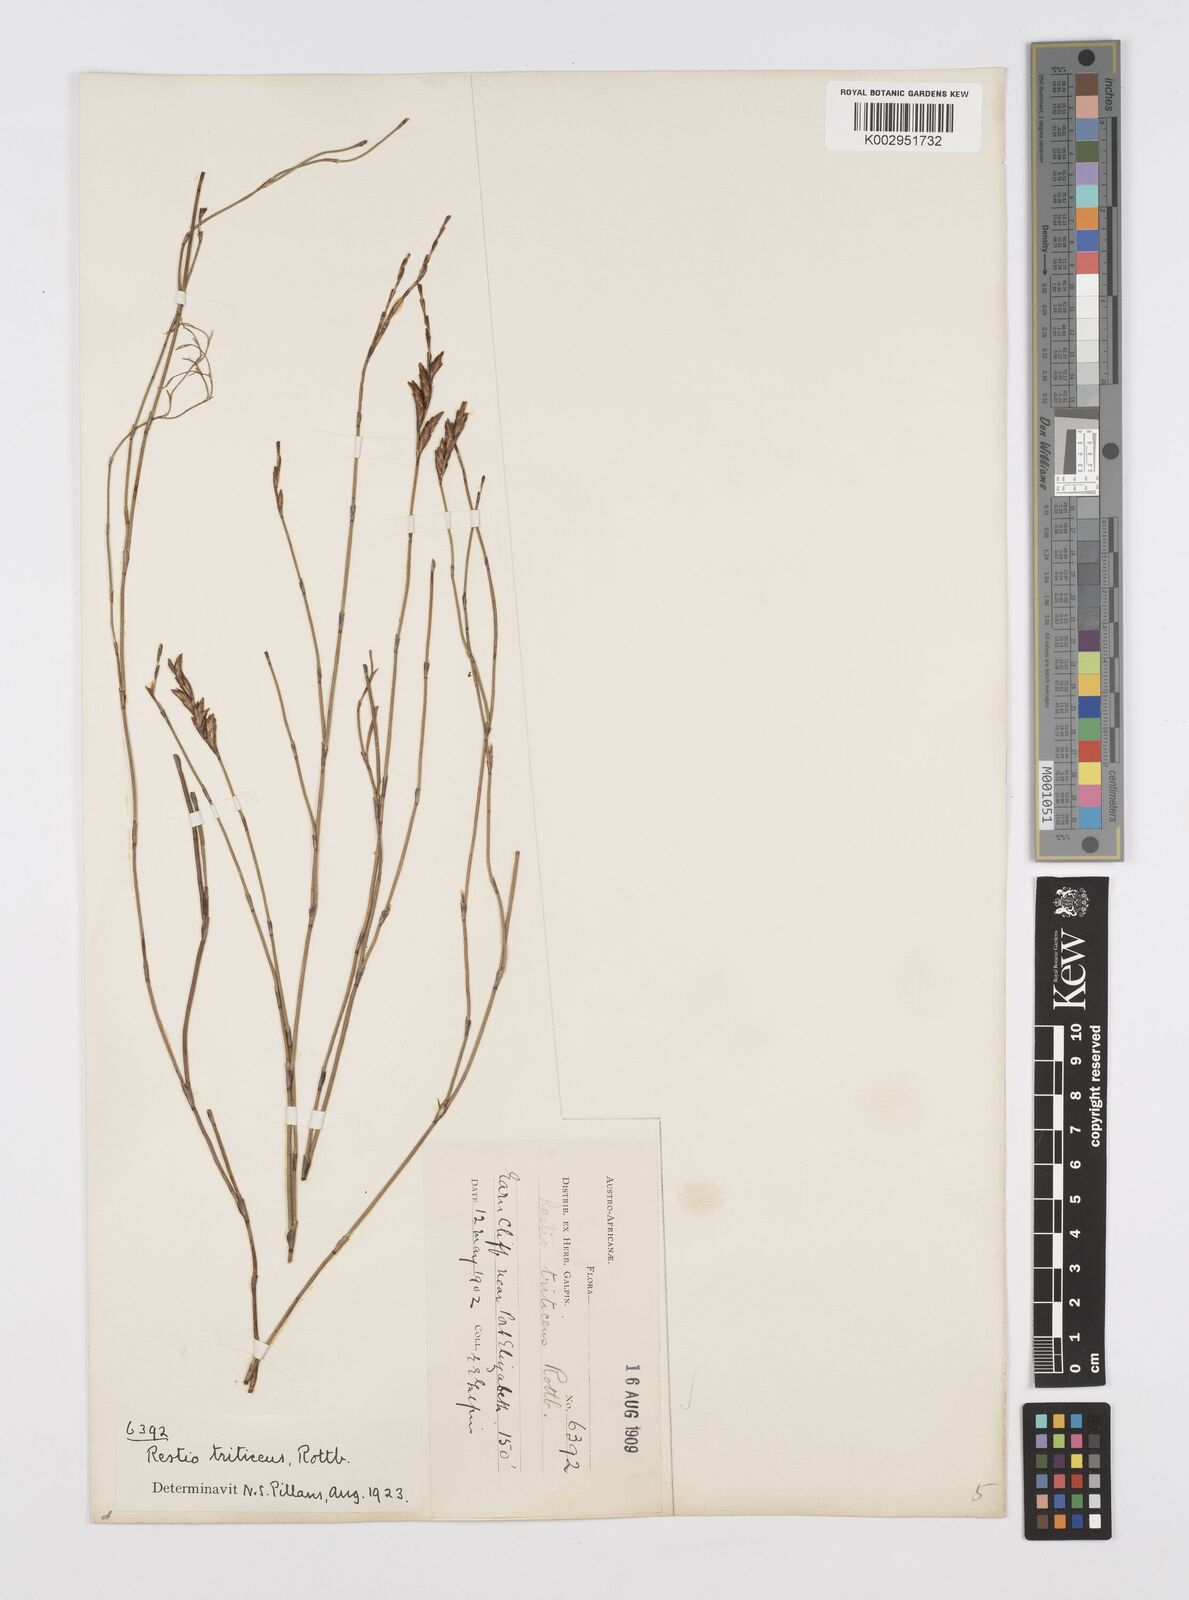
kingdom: Plantae
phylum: Tracheophyta
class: Liliopsida
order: Poales
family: Restionaceae
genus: Restio
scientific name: Restio triticeus
